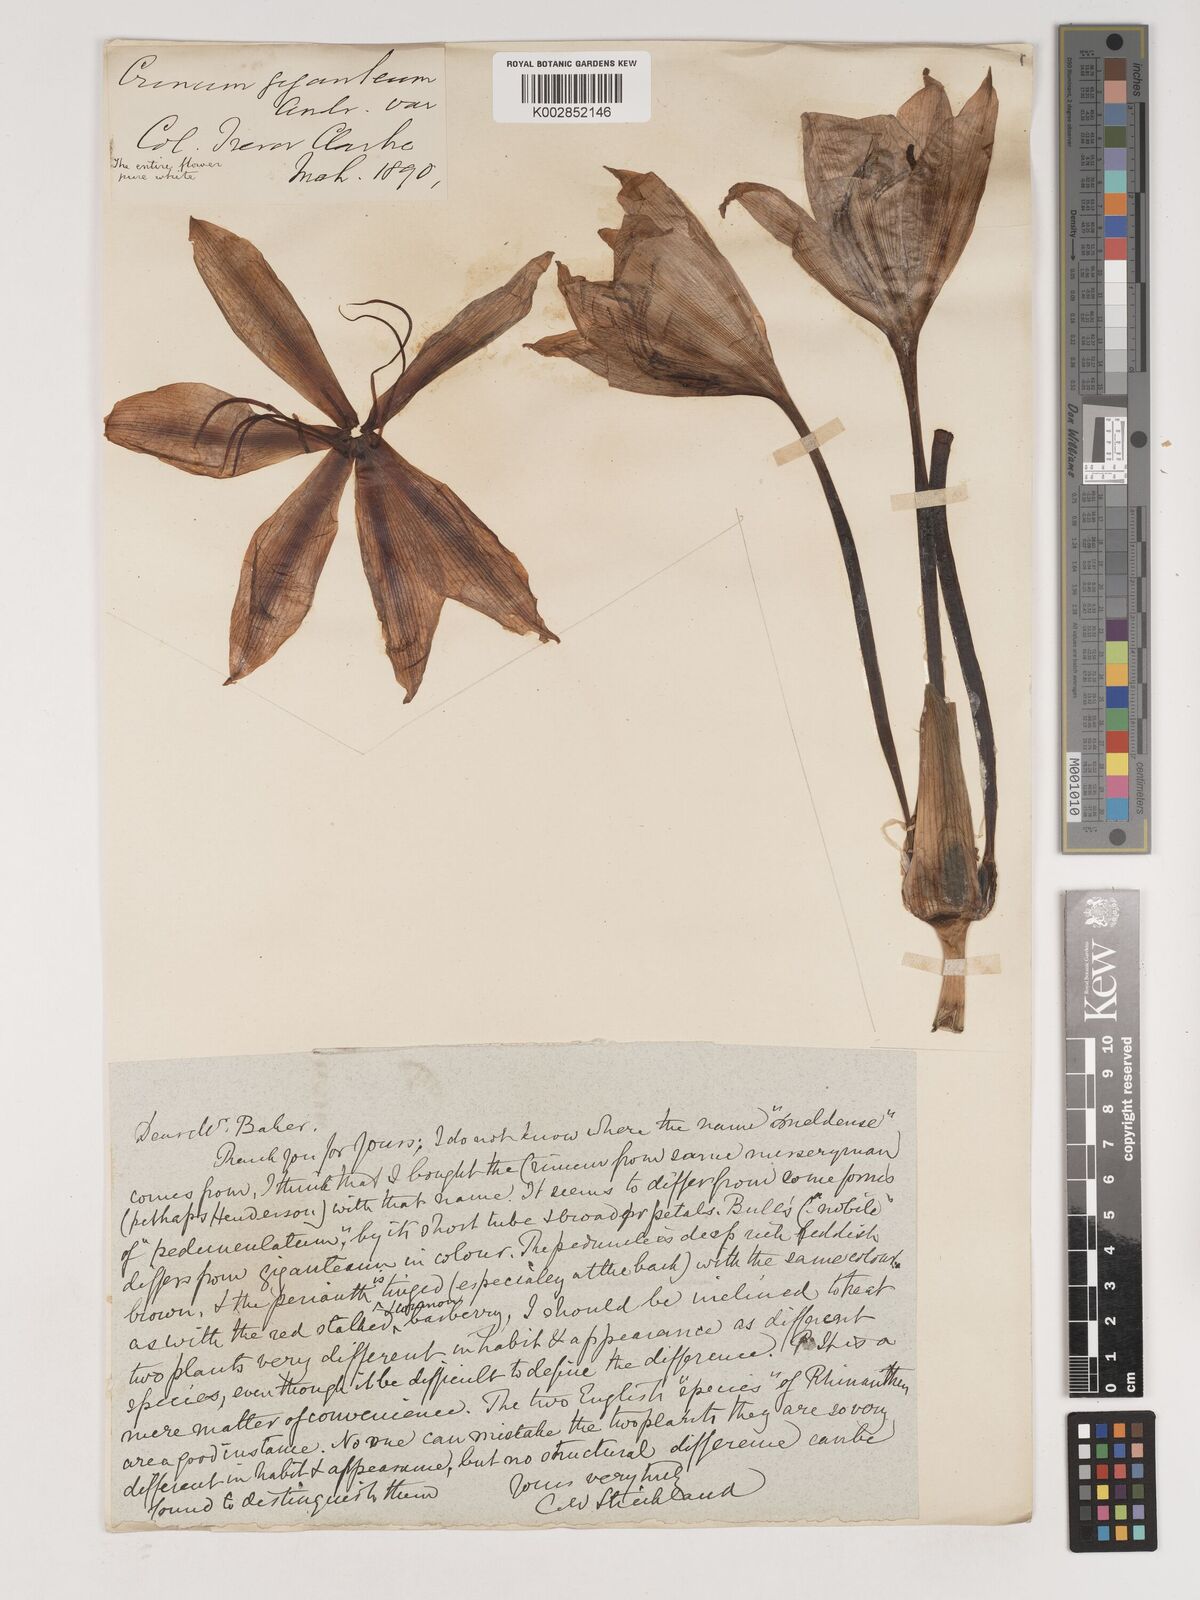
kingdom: Plantae
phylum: Tracheophyta
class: Liliopsida
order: Asparagales
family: Amaryllidaceae
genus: Crinum
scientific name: Crinum jagus
